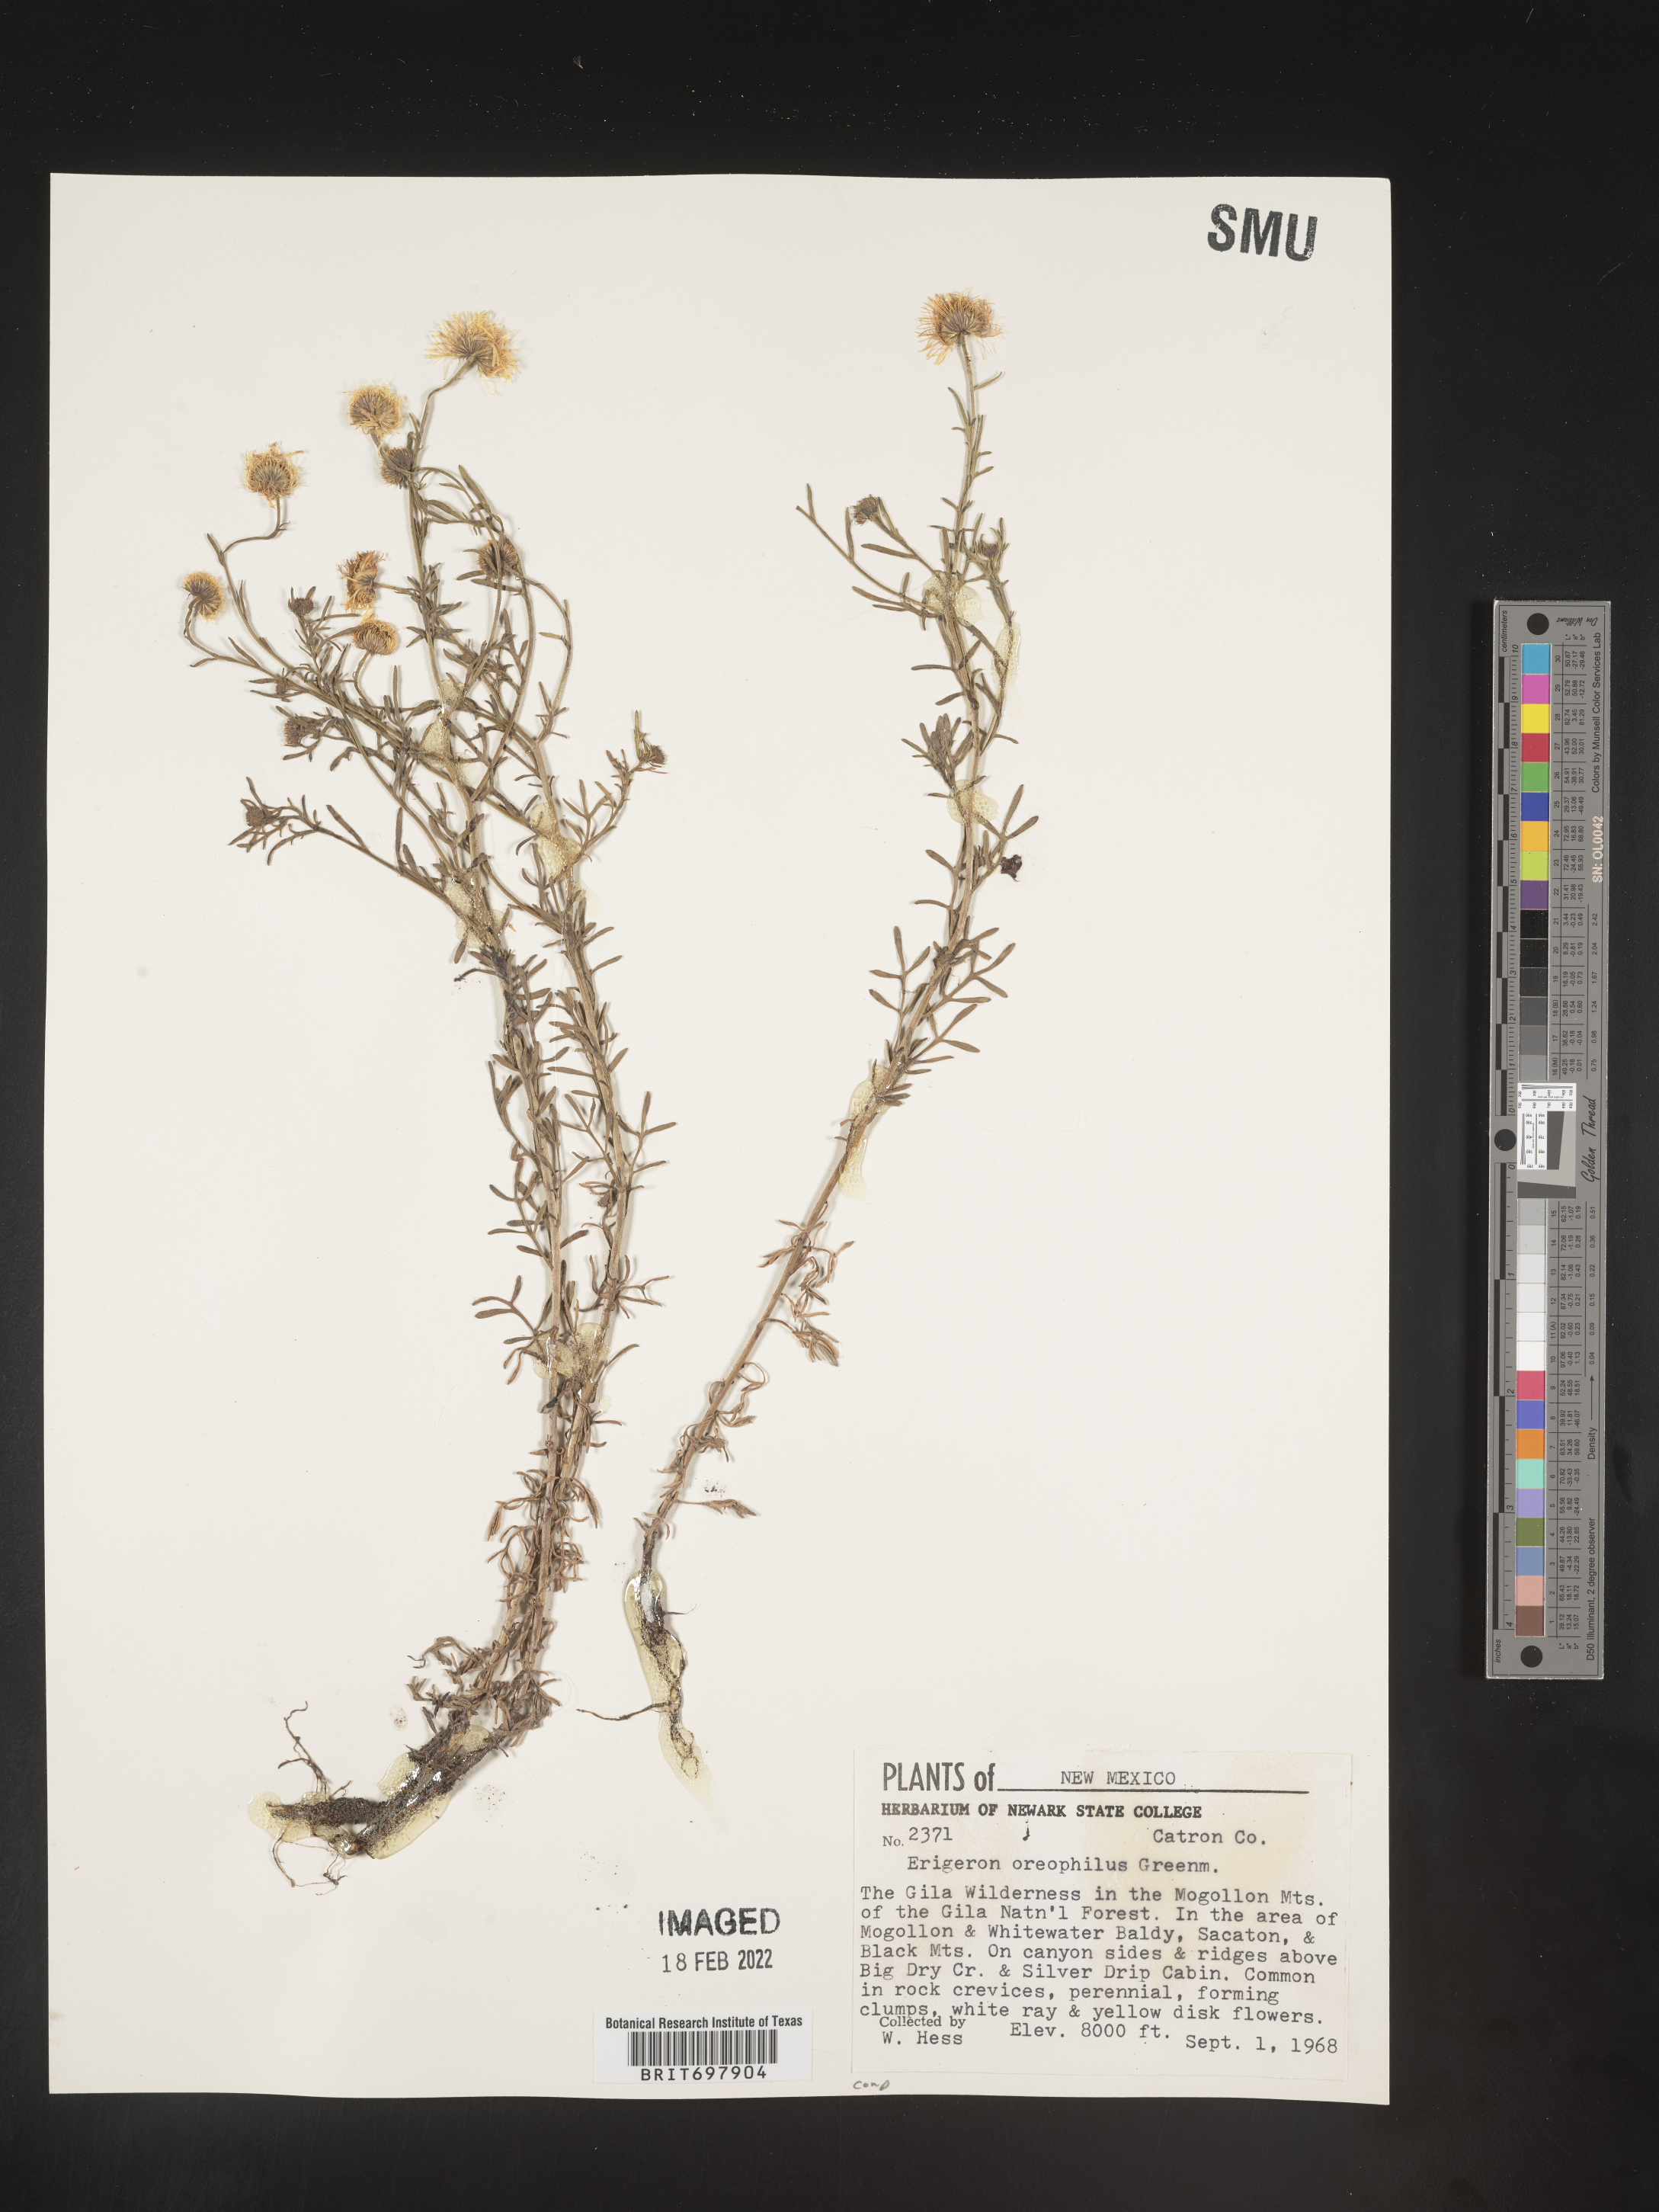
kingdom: Plantae
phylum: Tracheophyta
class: Magnoliopsida
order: Asterales
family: Asteraceae
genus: Erigeron
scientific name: Erigeron oreophilus
